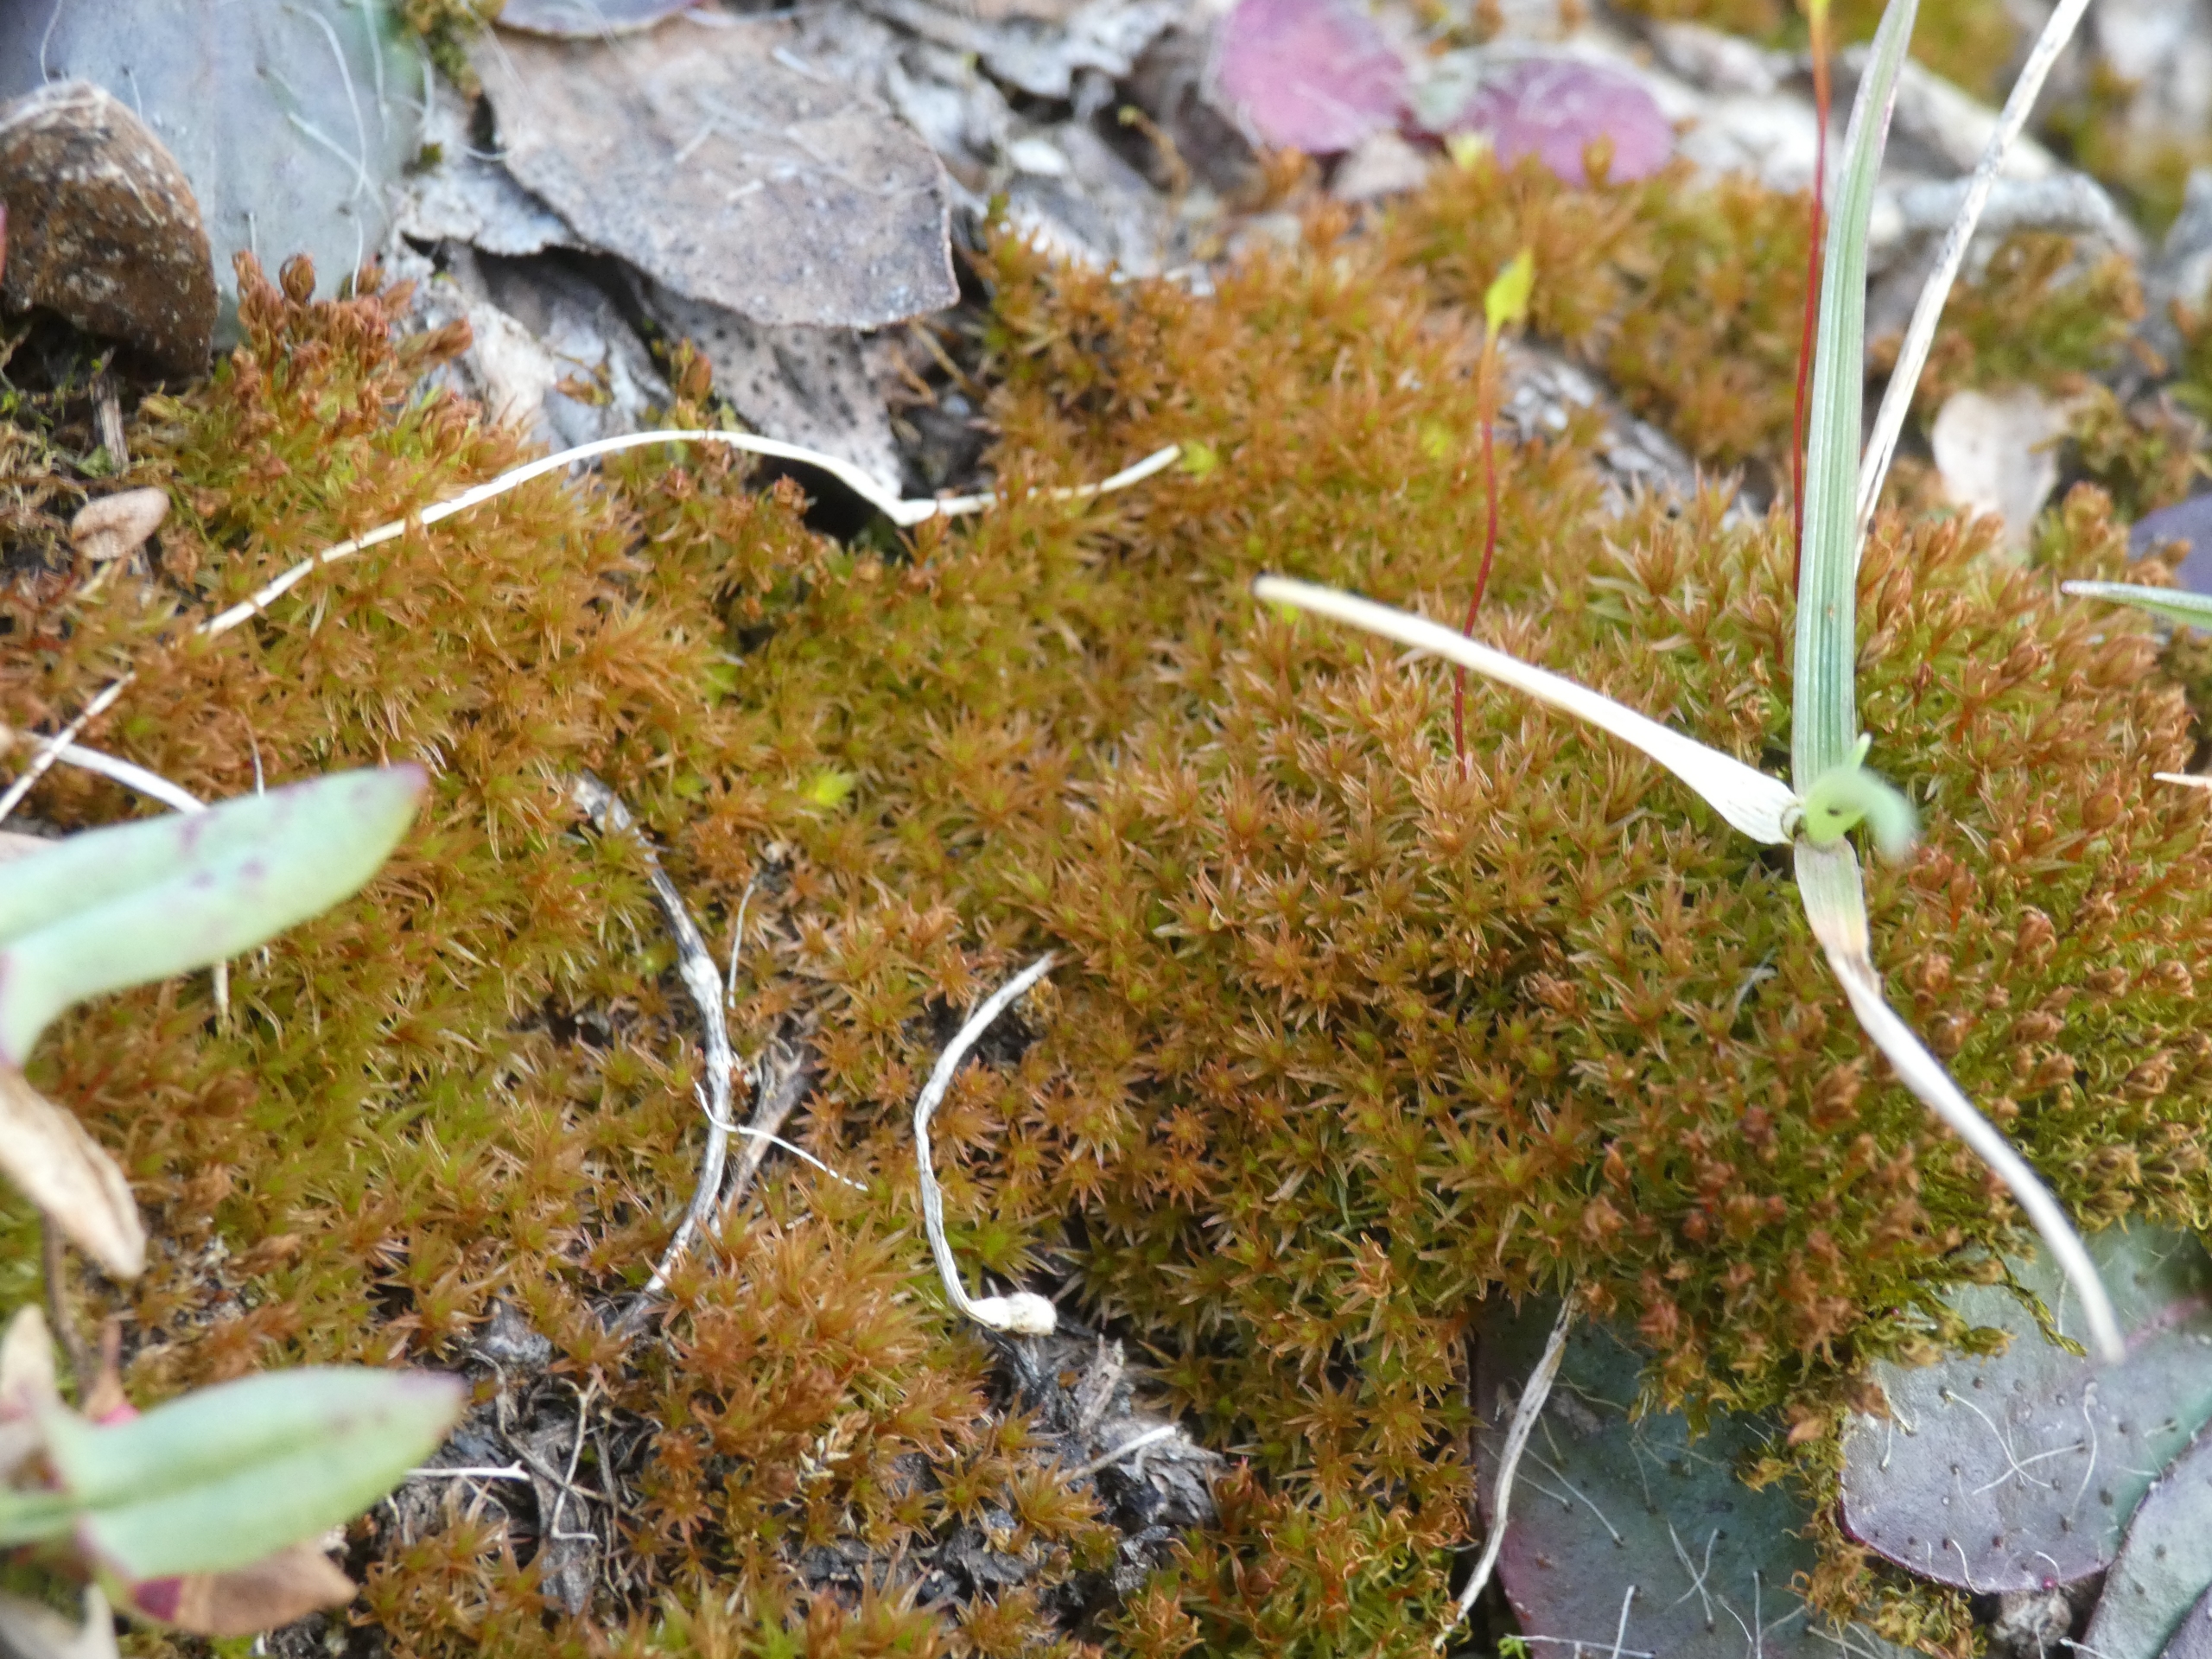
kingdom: Plantae
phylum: Bryophyta
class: Bryopsida
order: Dicranales
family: Ditrichaceae
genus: Ceratodon
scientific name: Ceratodon purpureus
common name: Rød horntand
